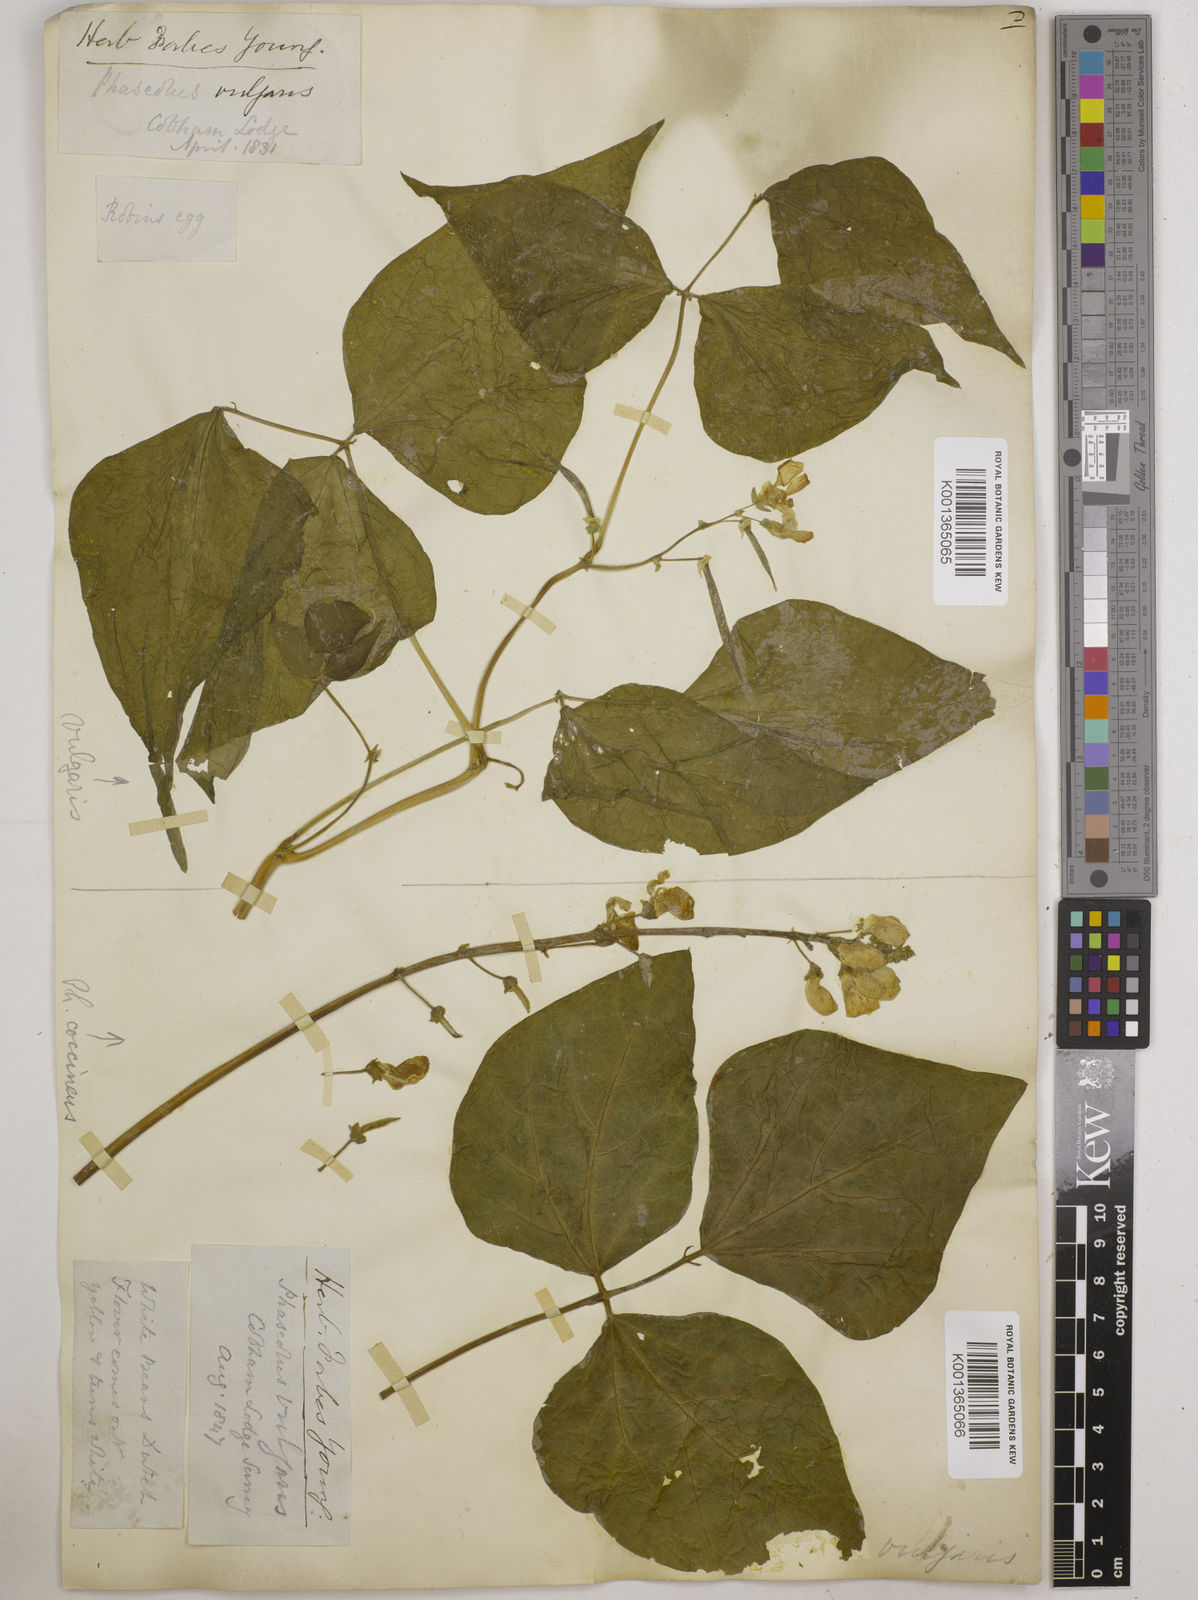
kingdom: Plantae
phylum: Tracheophyta
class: Magnoliopsida
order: Fabales
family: Fabaceae
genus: Phaseolus
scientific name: Phaseolus vulgaris
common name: Bean
